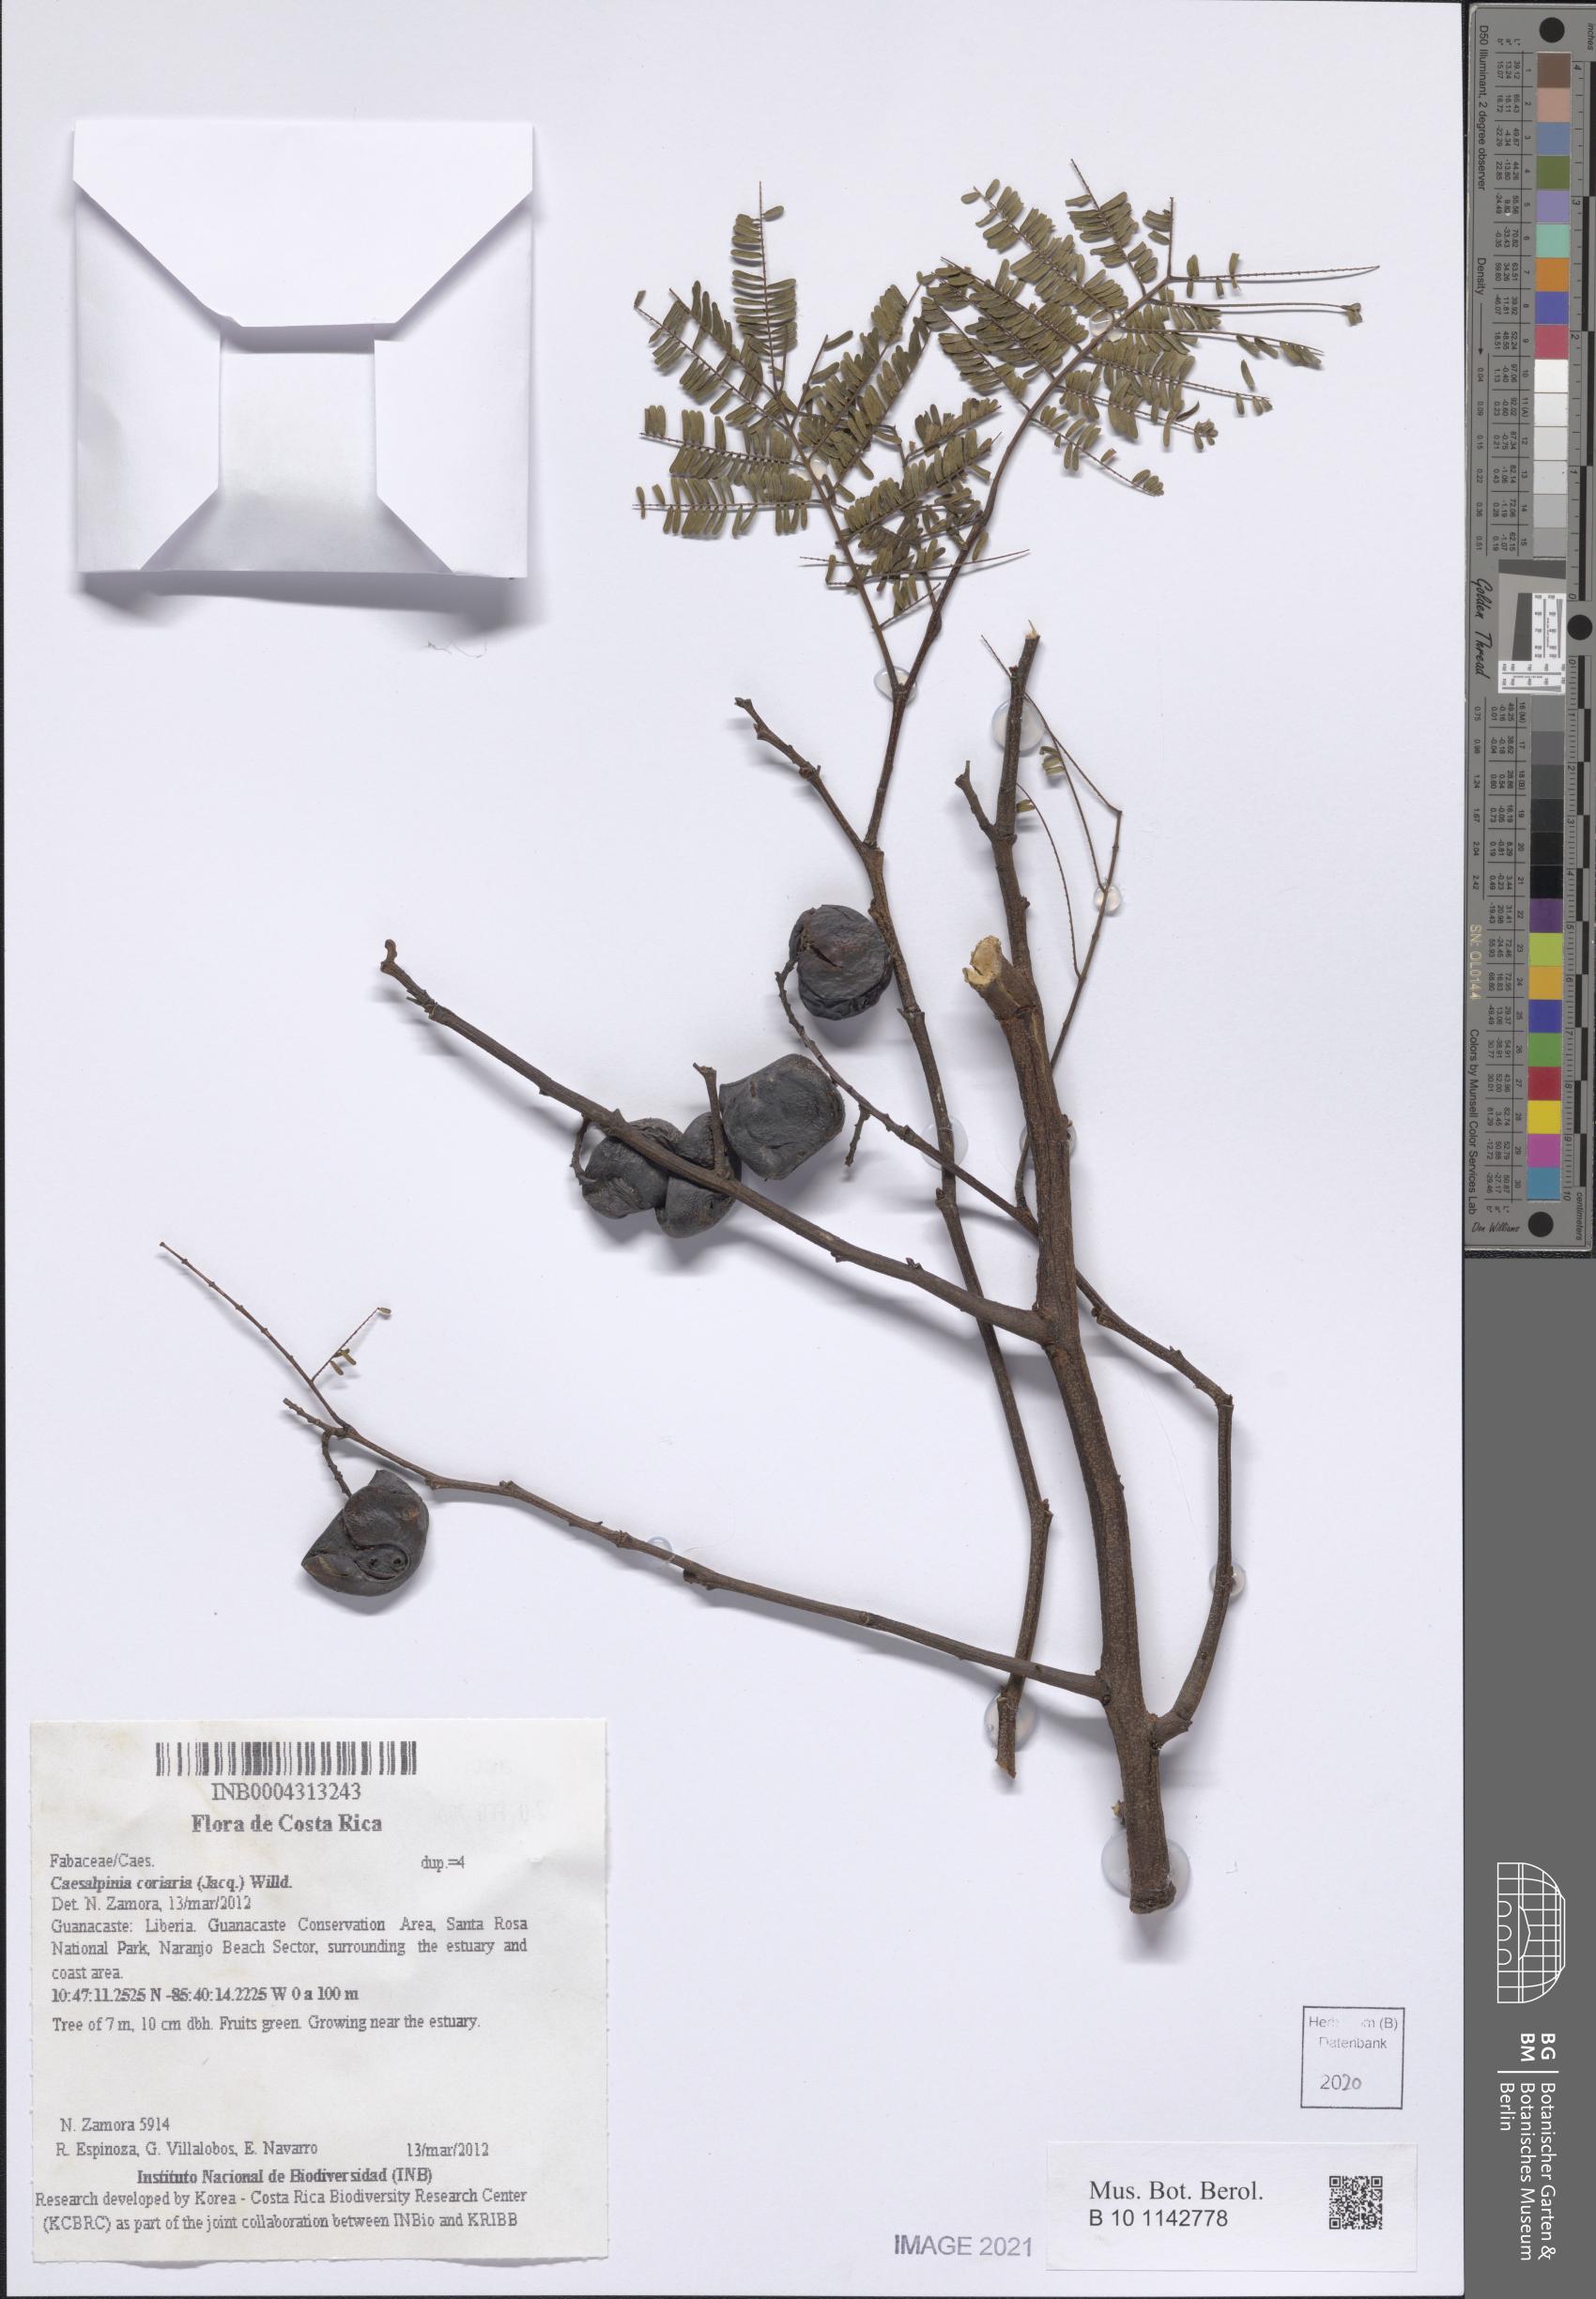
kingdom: Plantae
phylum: Tracheophyta
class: Magnoliopsida
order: Fabales
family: Fabaceae
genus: Libidibia
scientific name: Libidibia coriaria
